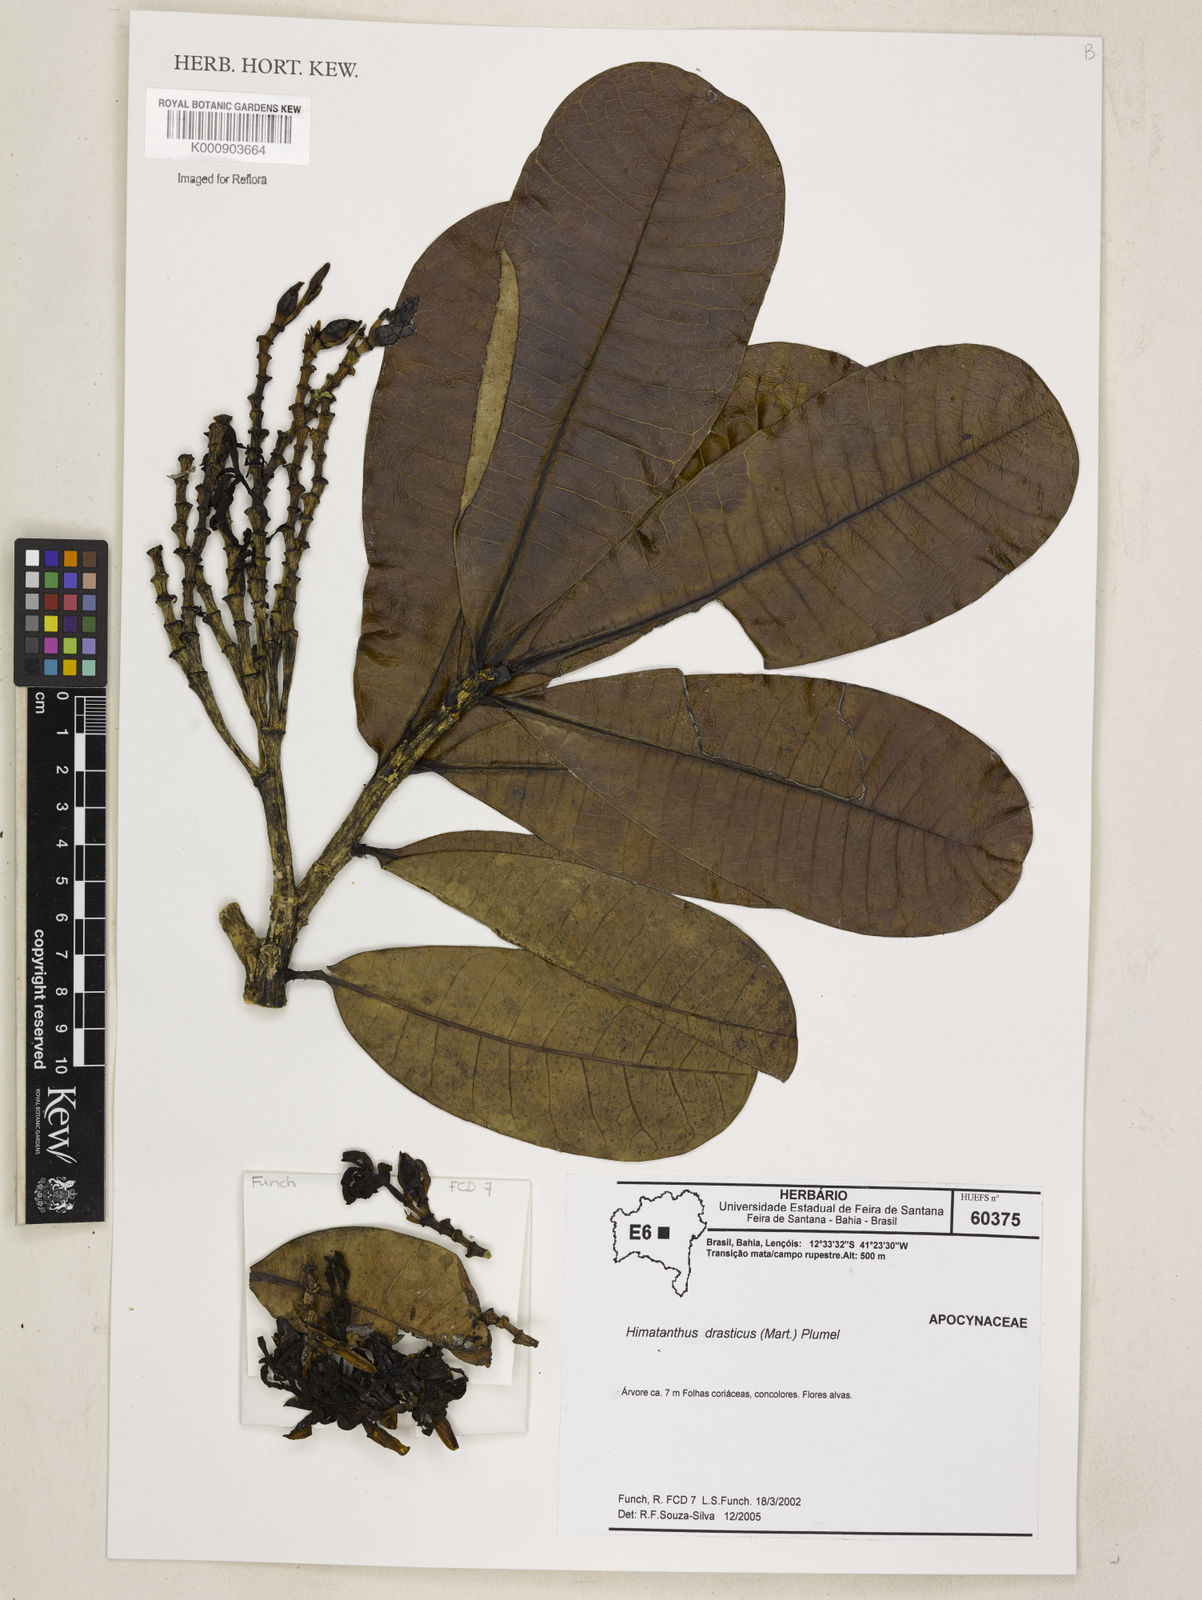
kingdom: Plantae
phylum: Tracheophyta
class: Magnoliopsida
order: Gentianales
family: Apocynaceae
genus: Himatanthus
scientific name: Himatanthus drasticus
